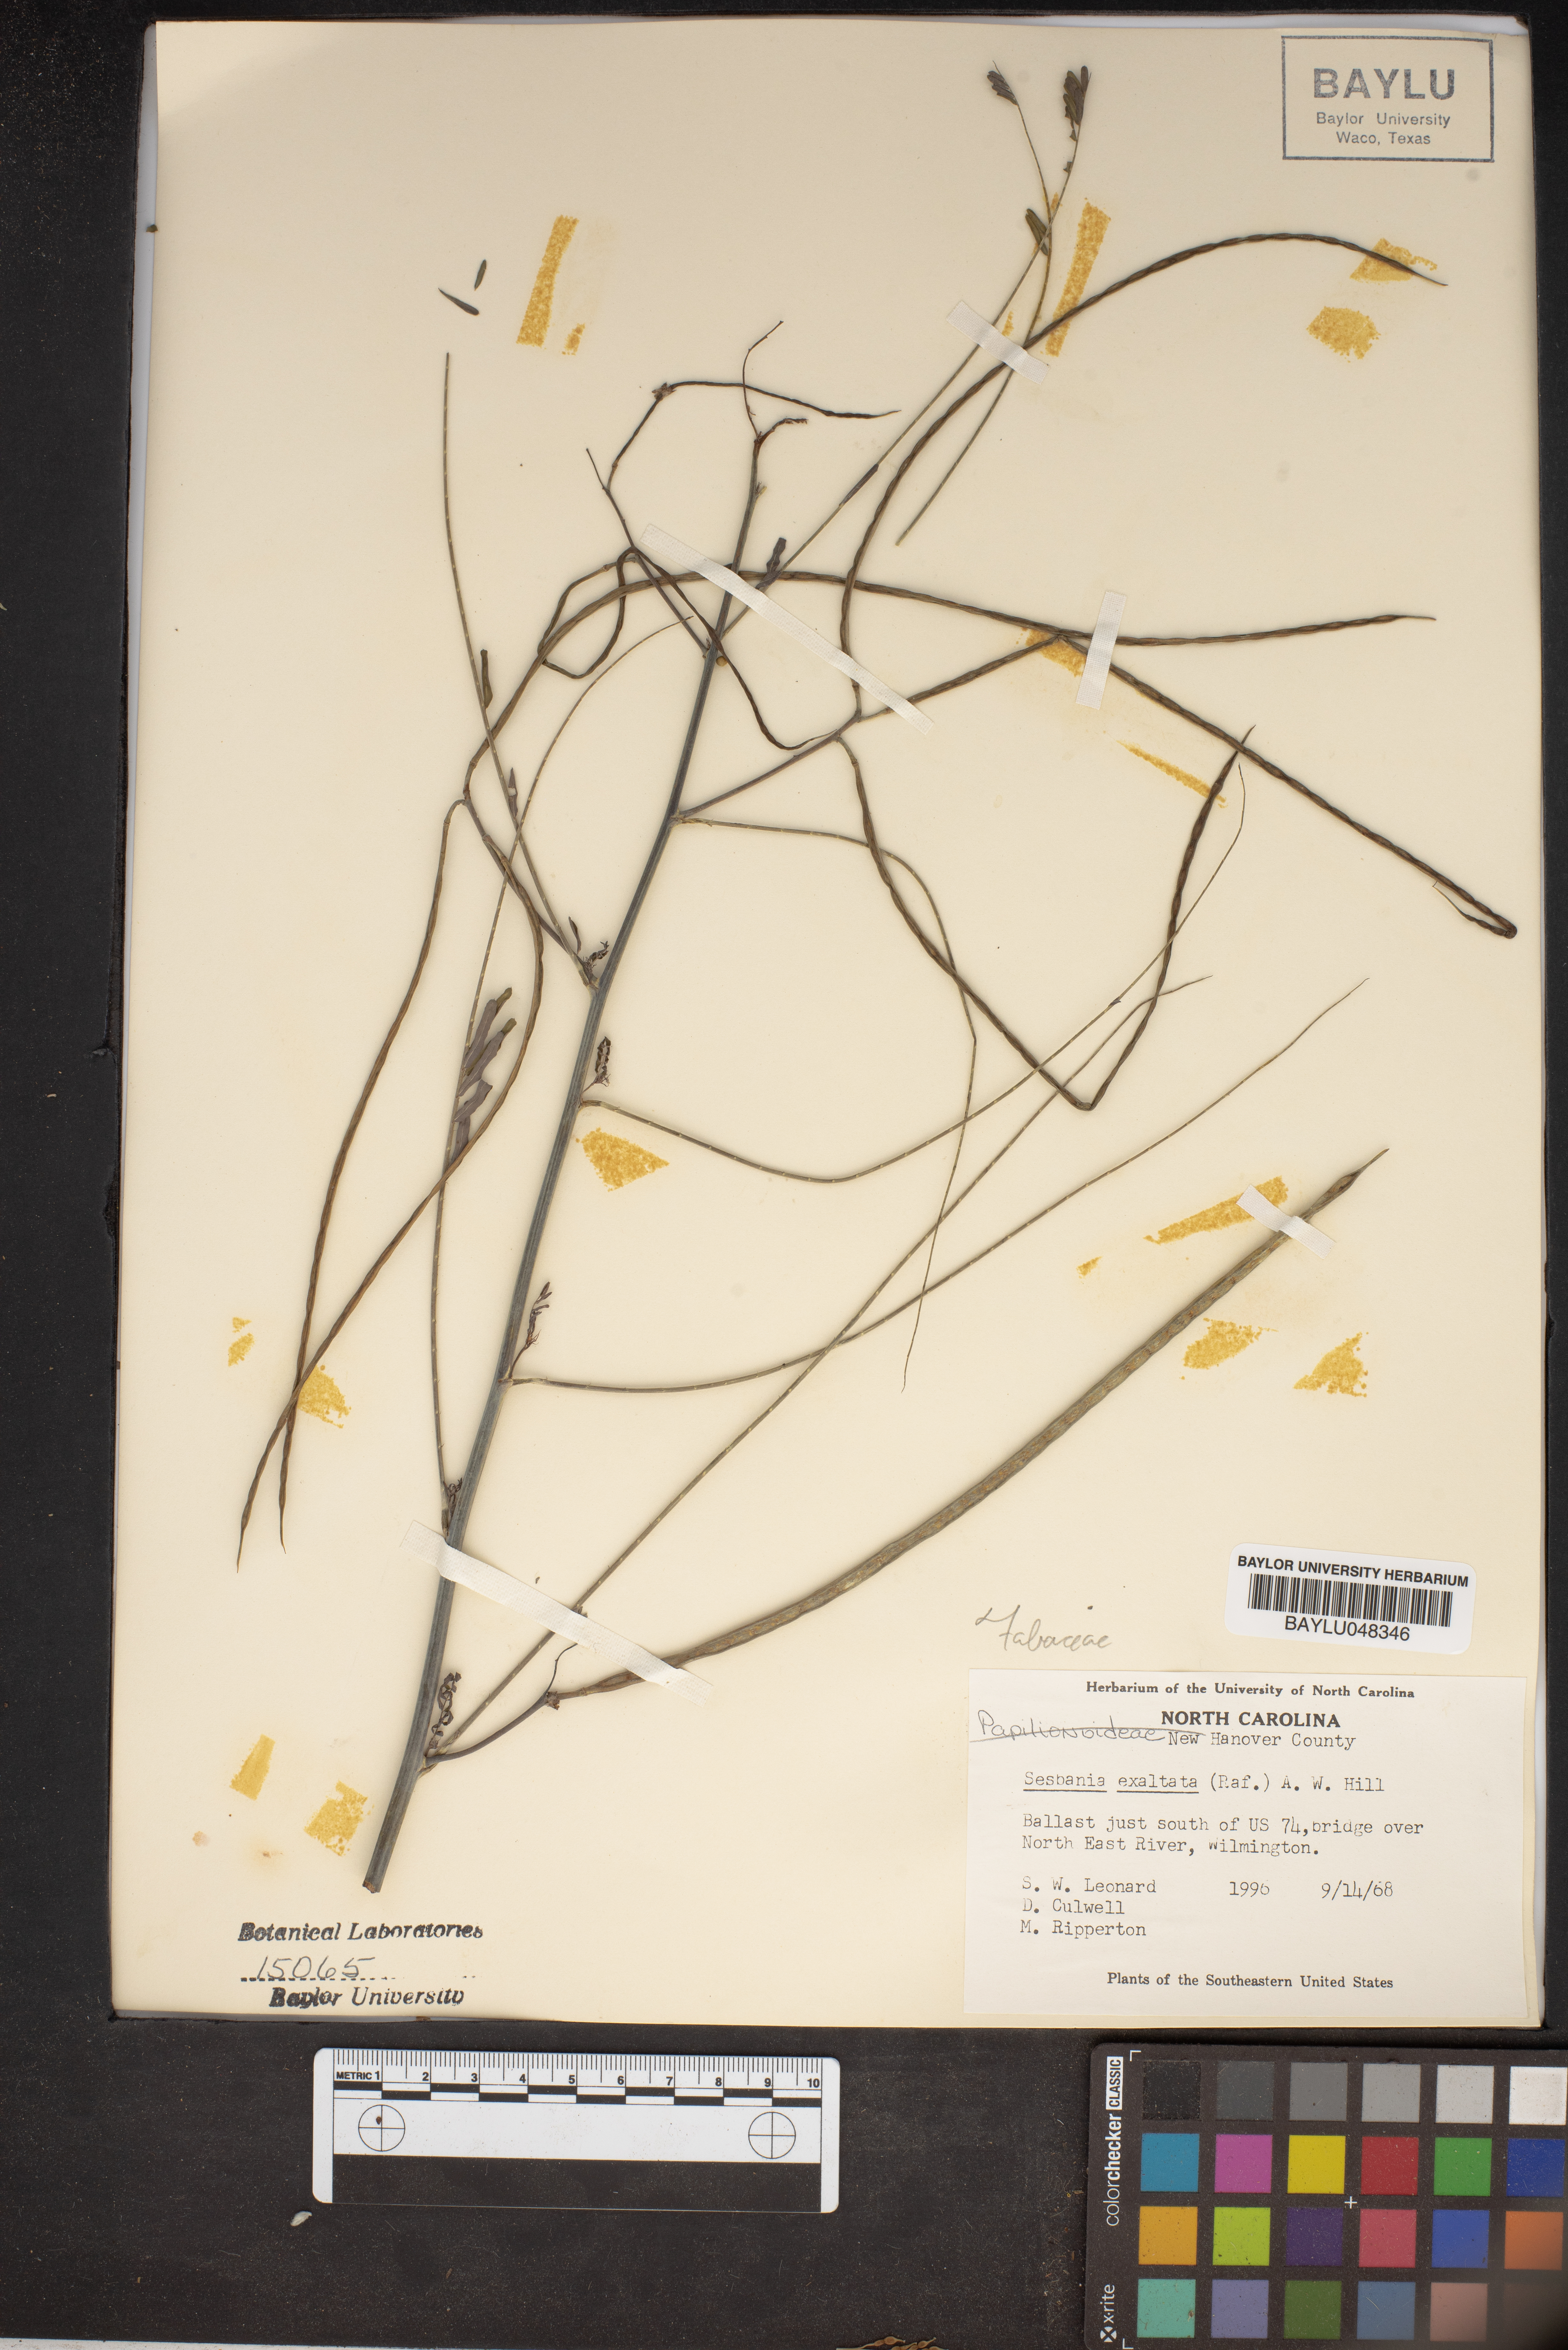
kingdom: Plantae
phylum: Tracheophyta
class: Magnoliopsida
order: Fabales
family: Fabaceae
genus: Sesbania
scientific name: Sesbania herbacea
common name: Bigpod sesbania
